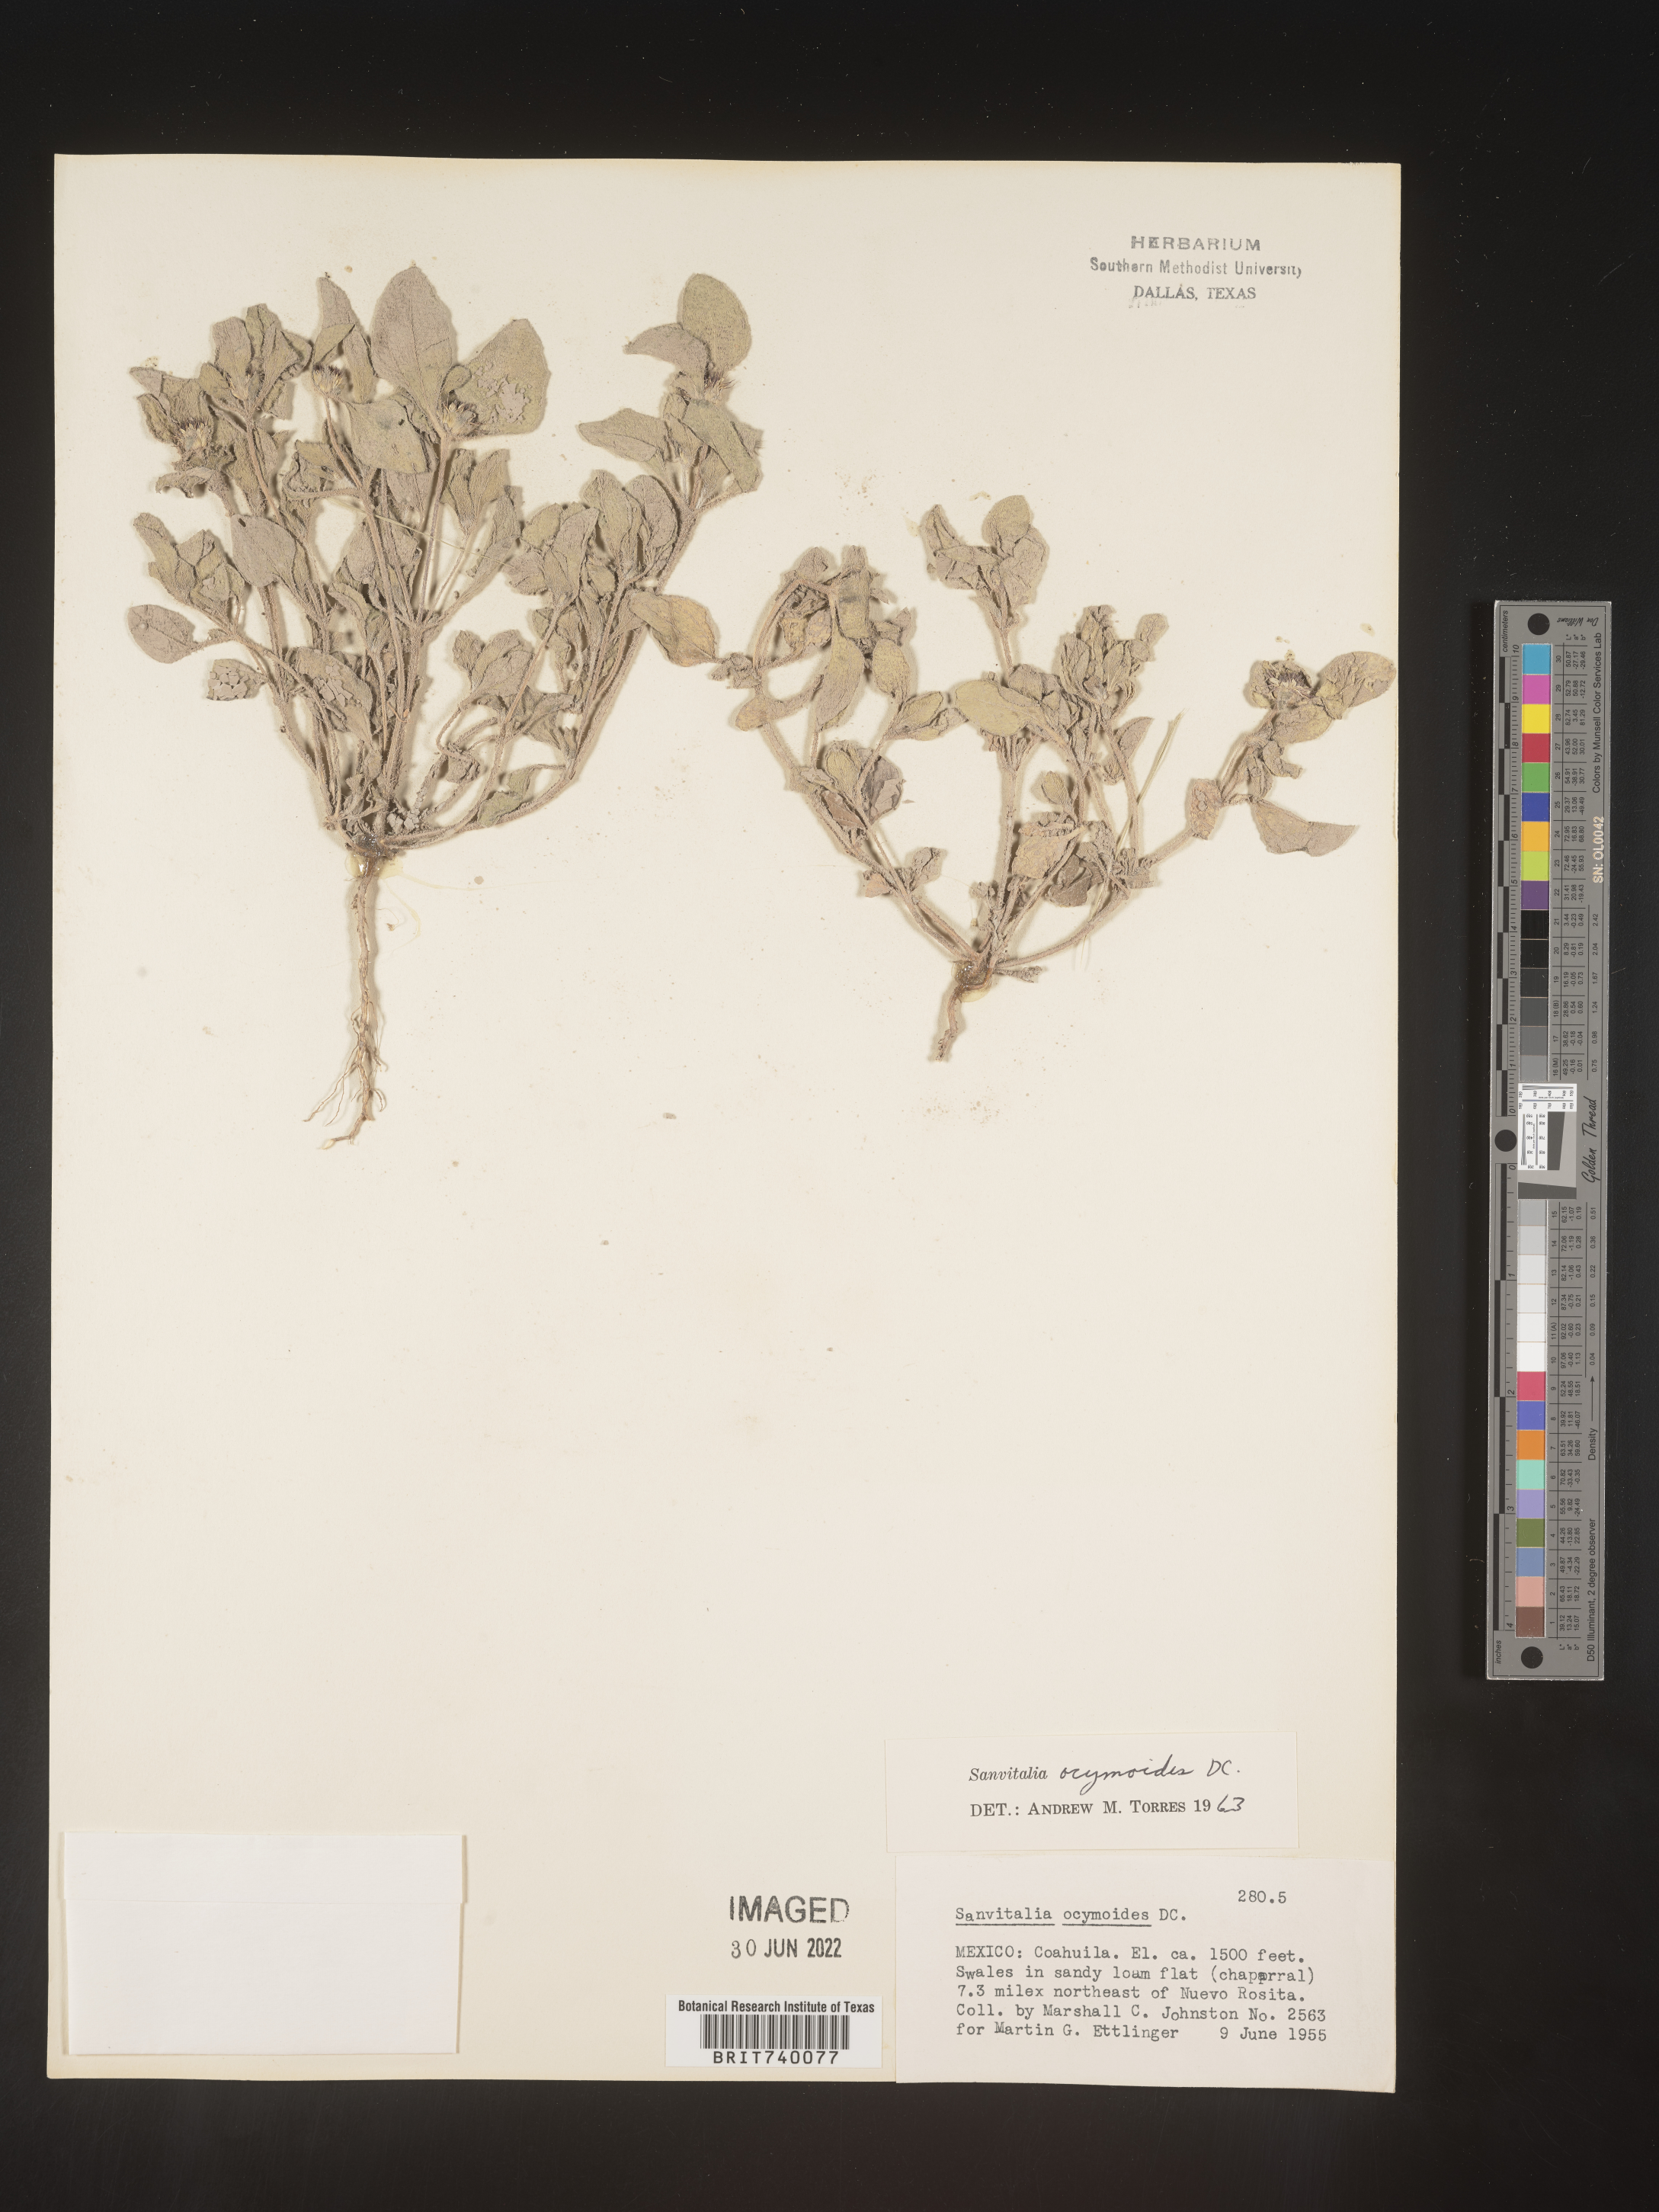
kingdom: Plantae
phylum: Tracheophyta
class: Magnoliopsida
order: Asterales
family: Asteraceae
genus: Sanvitalia
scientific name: Sanvitalia
